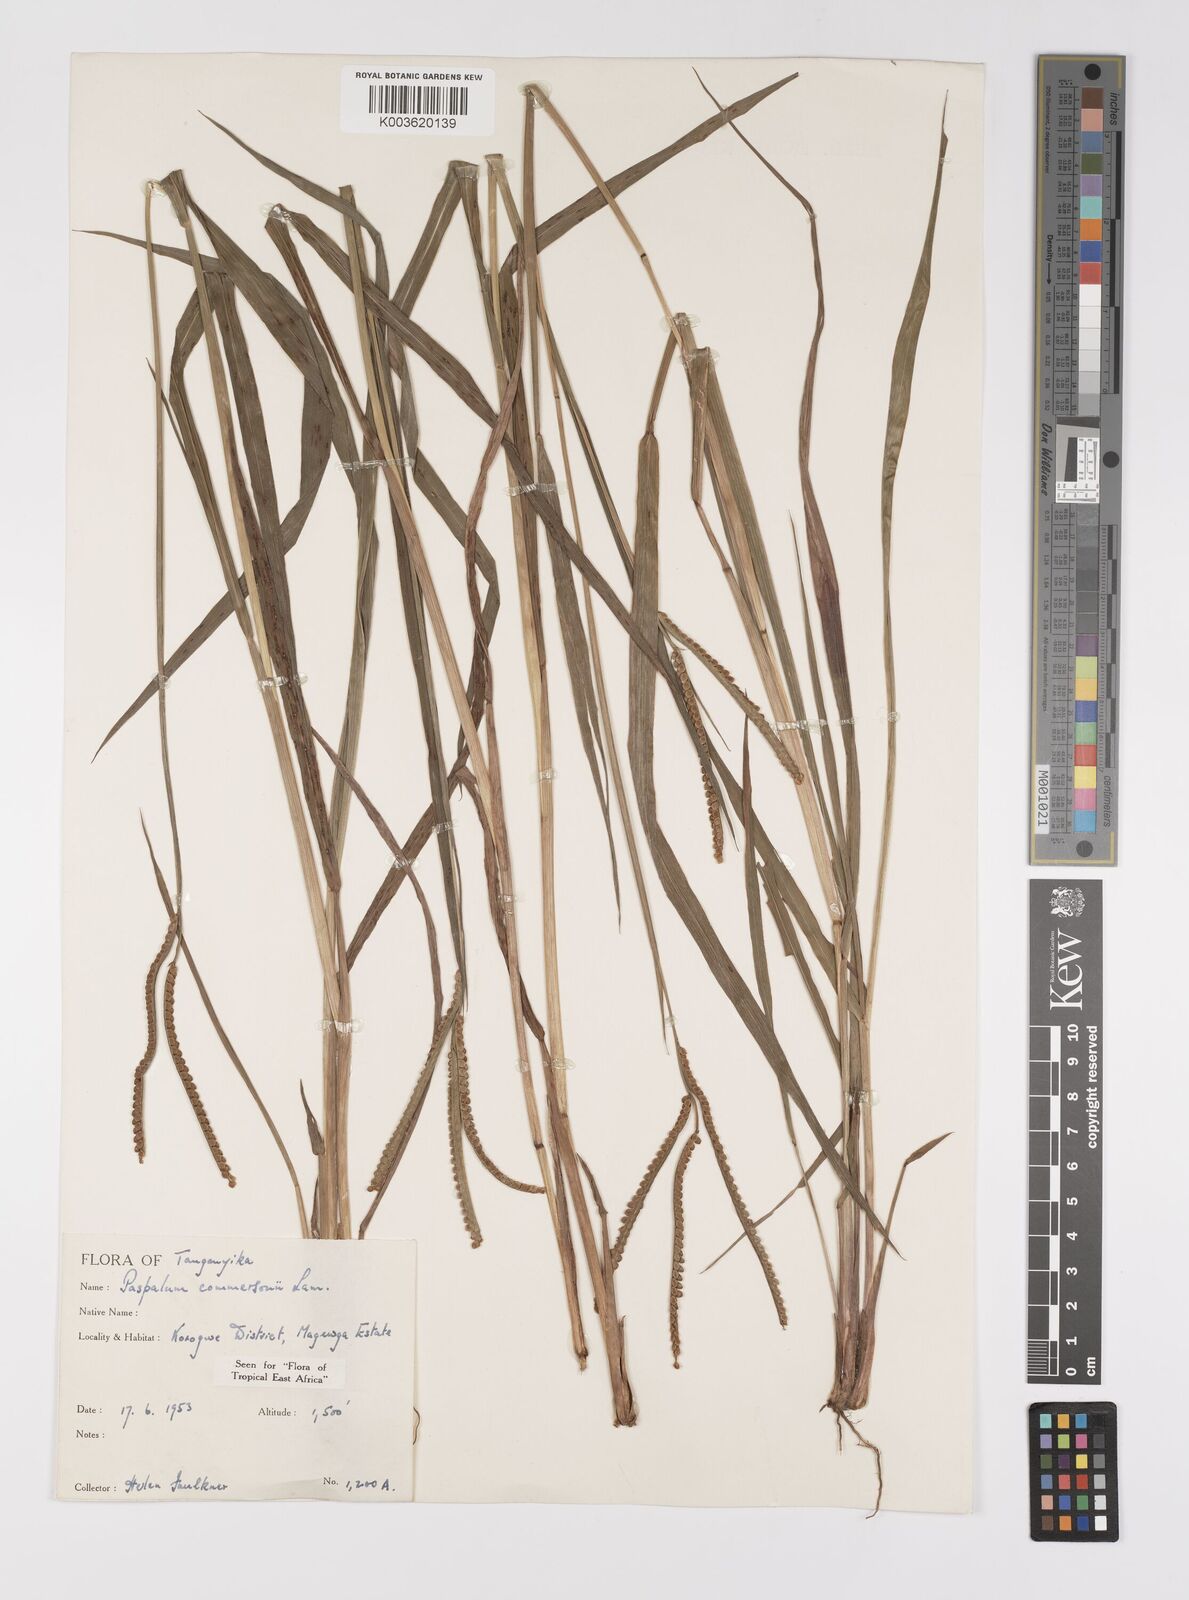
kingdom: Plantae
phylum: Tracheophyta
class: Liliopsida
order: Poales
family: Poaceae
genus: Paspalum
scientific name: Paspalum scrobiculatum
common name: Kodo millet
